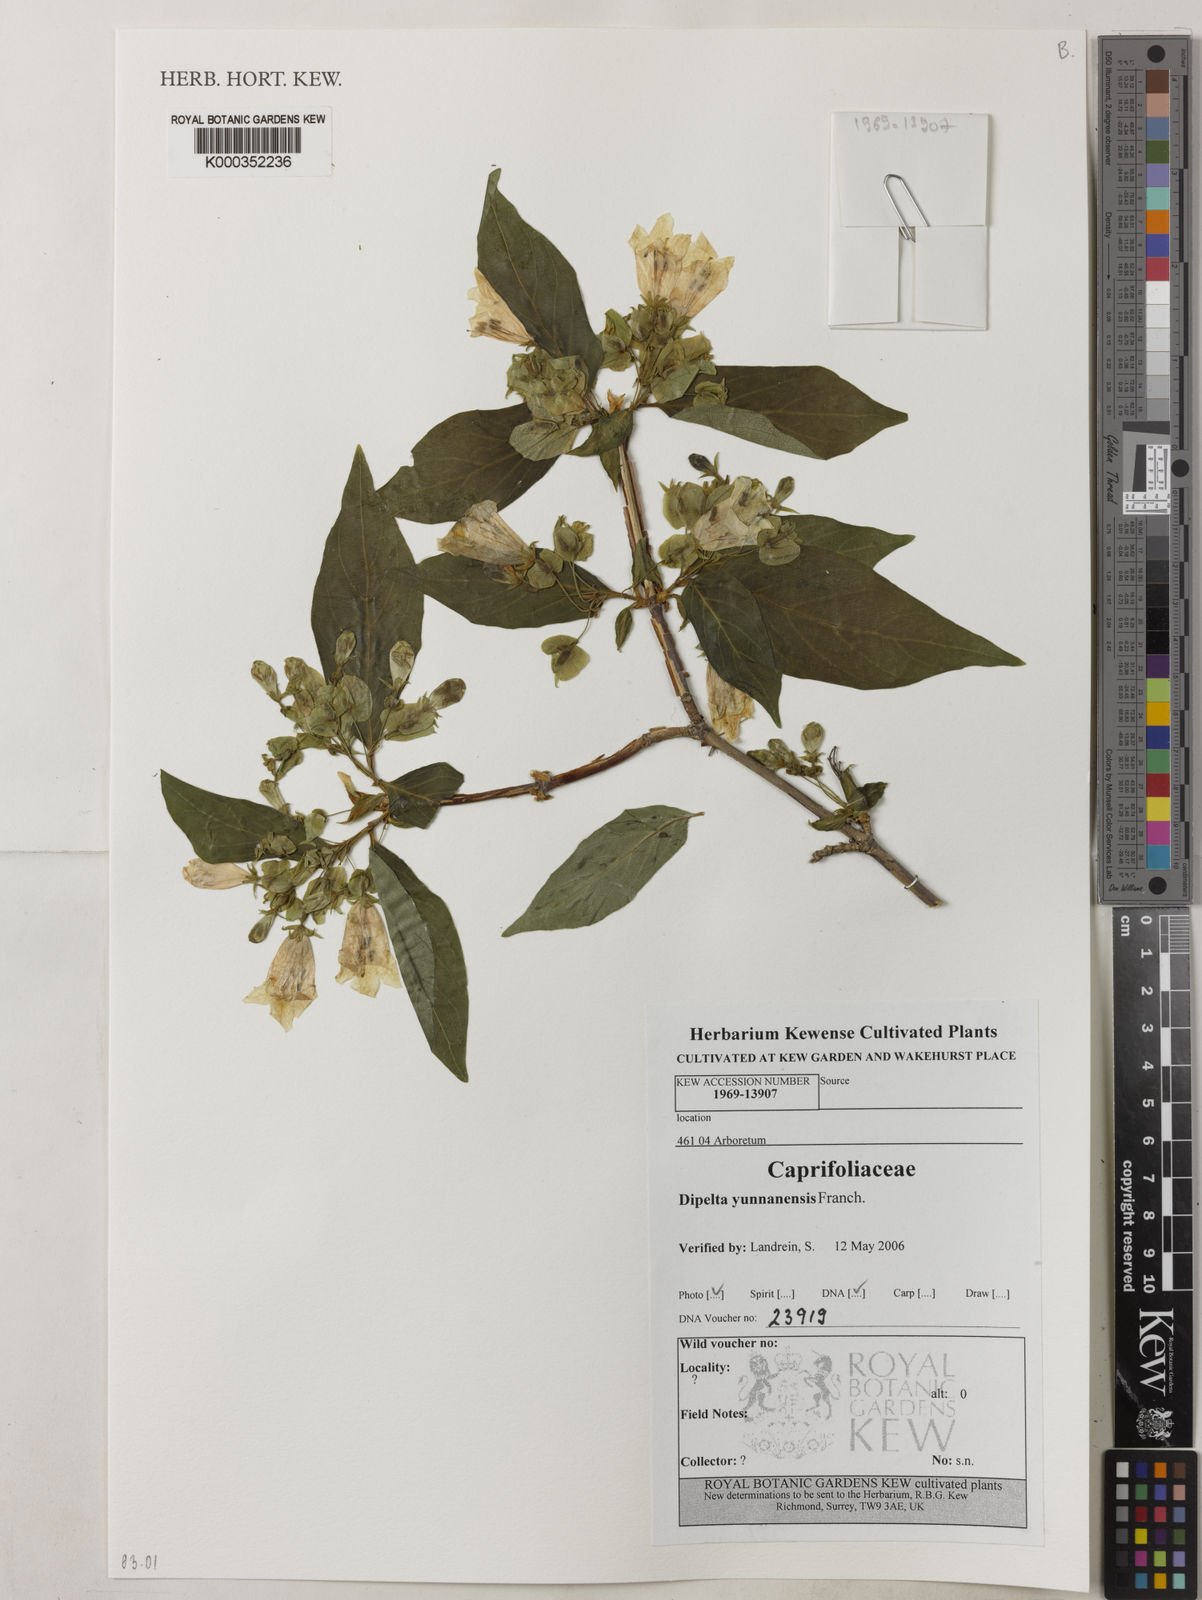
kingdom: Plantae
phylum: Tracheophyta
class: Magnoliopsida
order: Dipsacales
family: Caprifoliaceae
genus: Dipelta
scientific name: Dipelta yunnanensis
